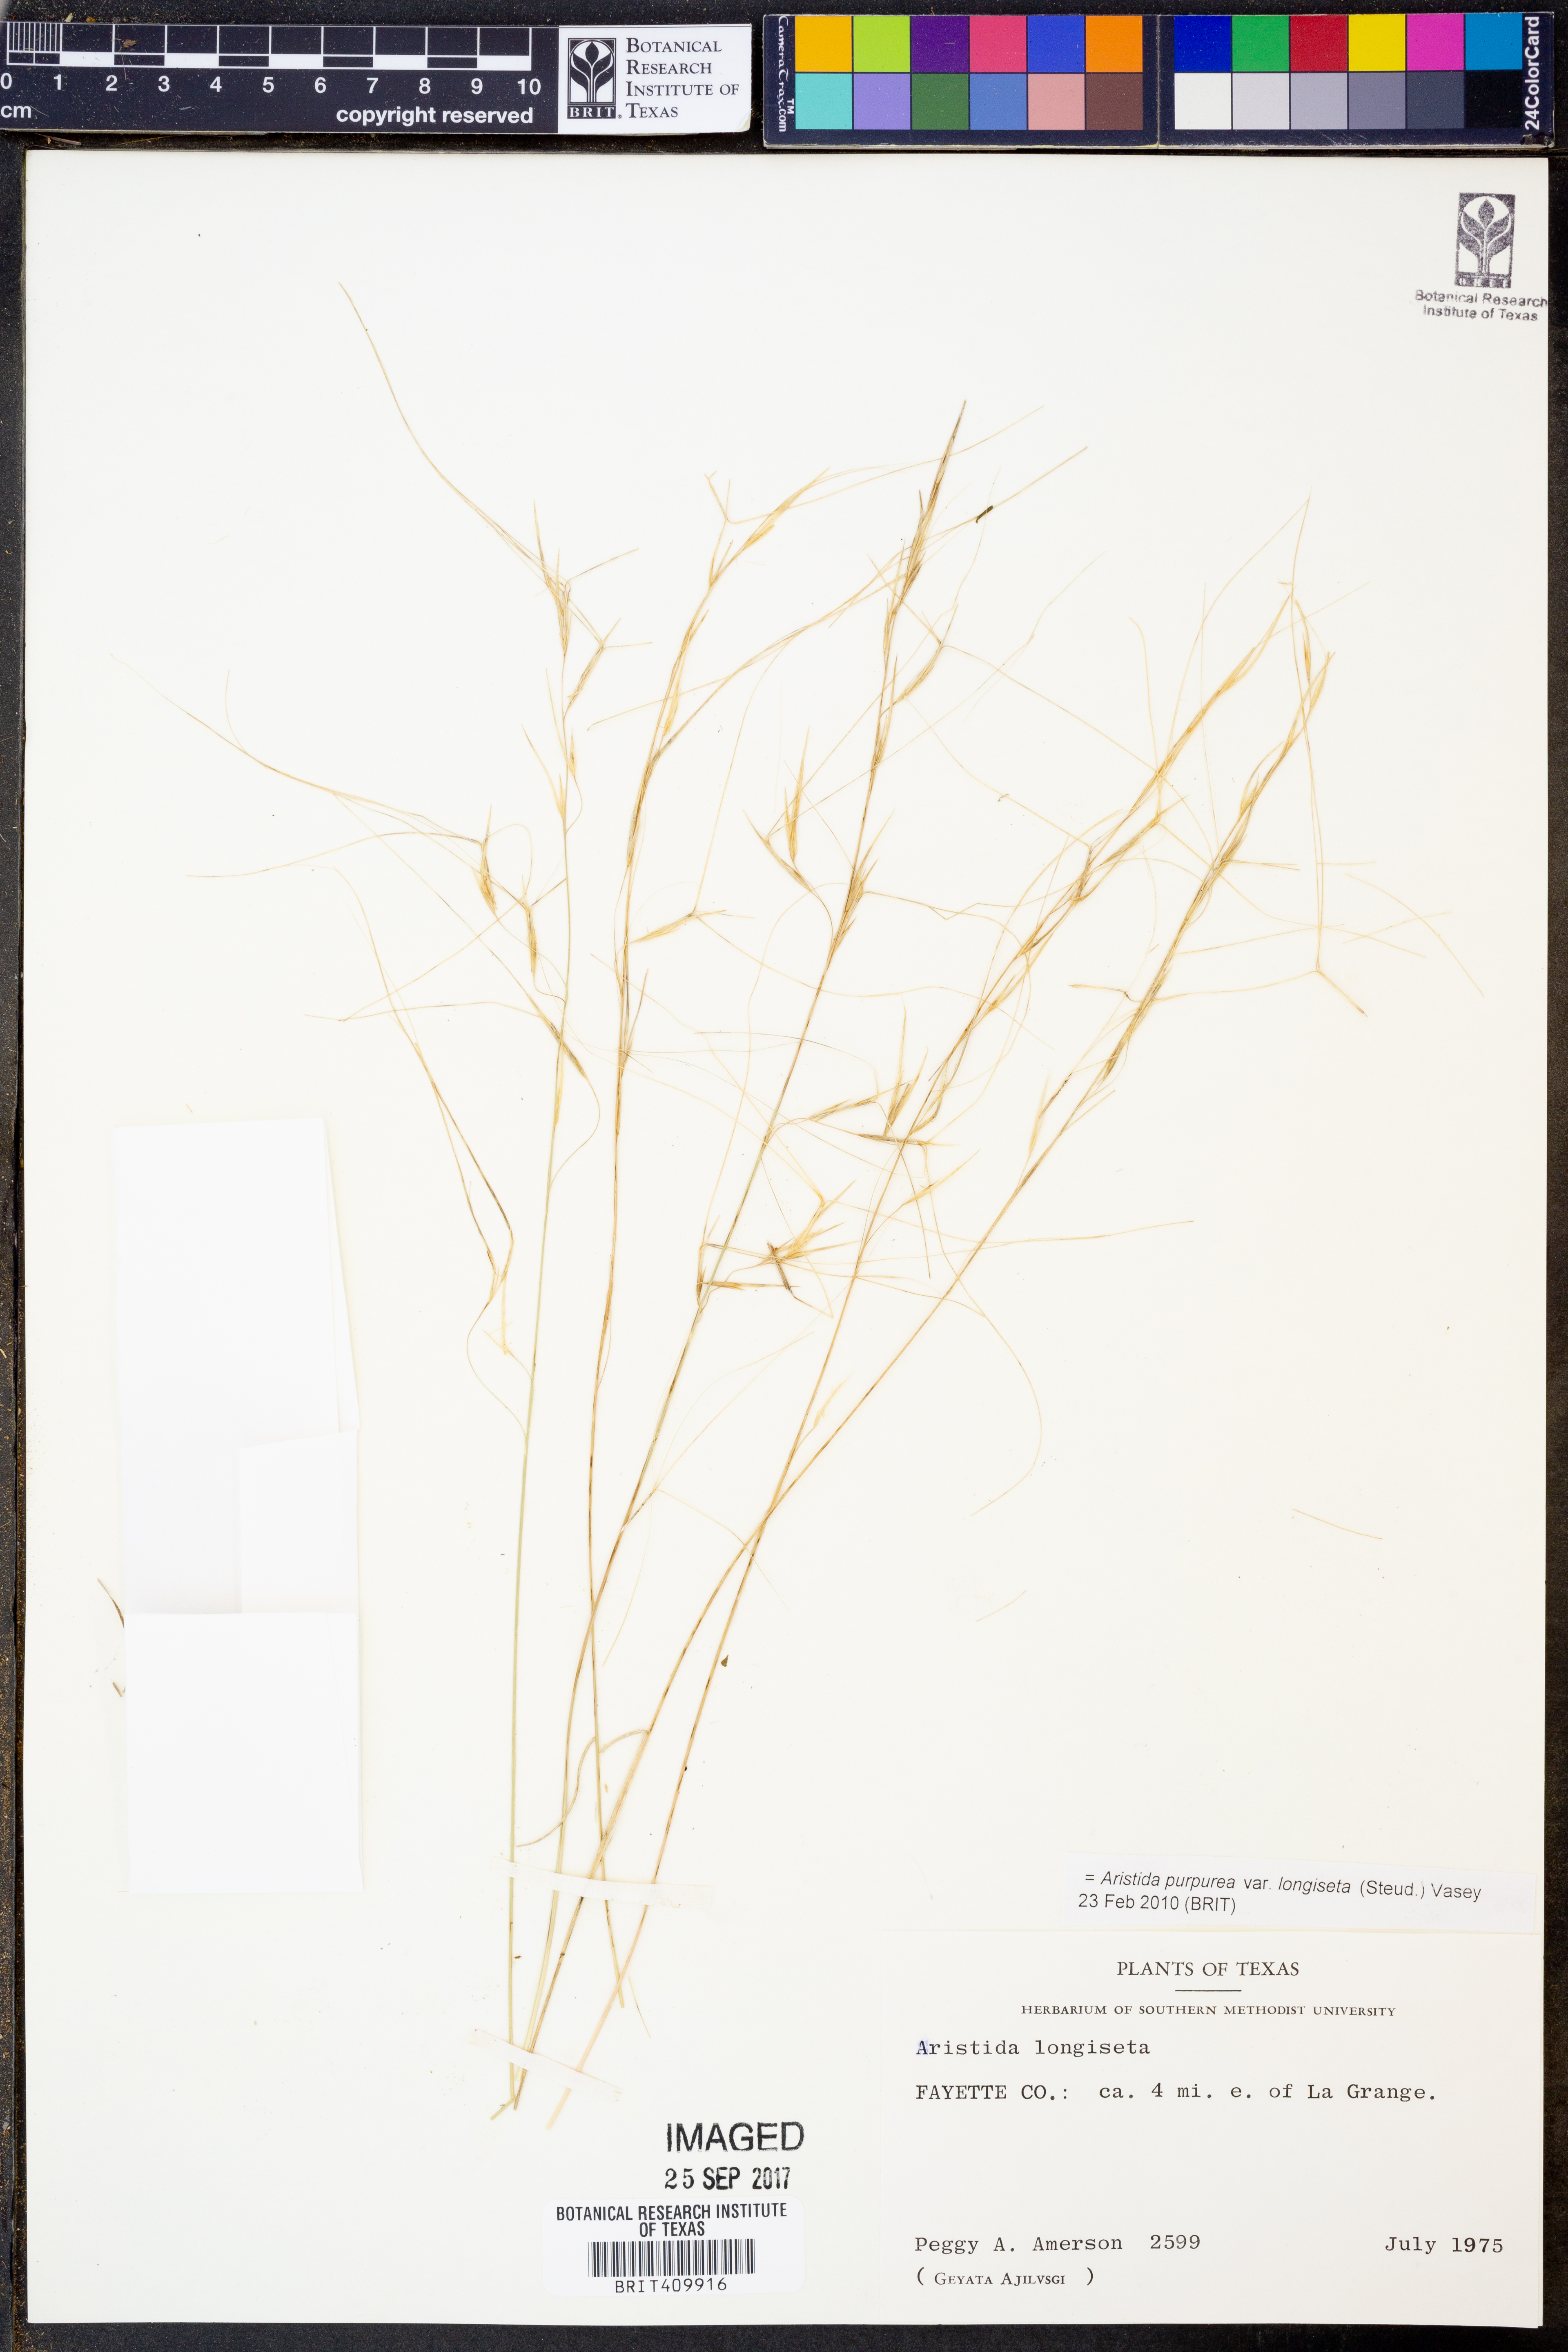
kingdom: Plantae
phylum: Tracheophyta
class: Liliopsida
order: Poales
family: Poaceae
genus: Aristida
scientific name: Aristida longiseta
